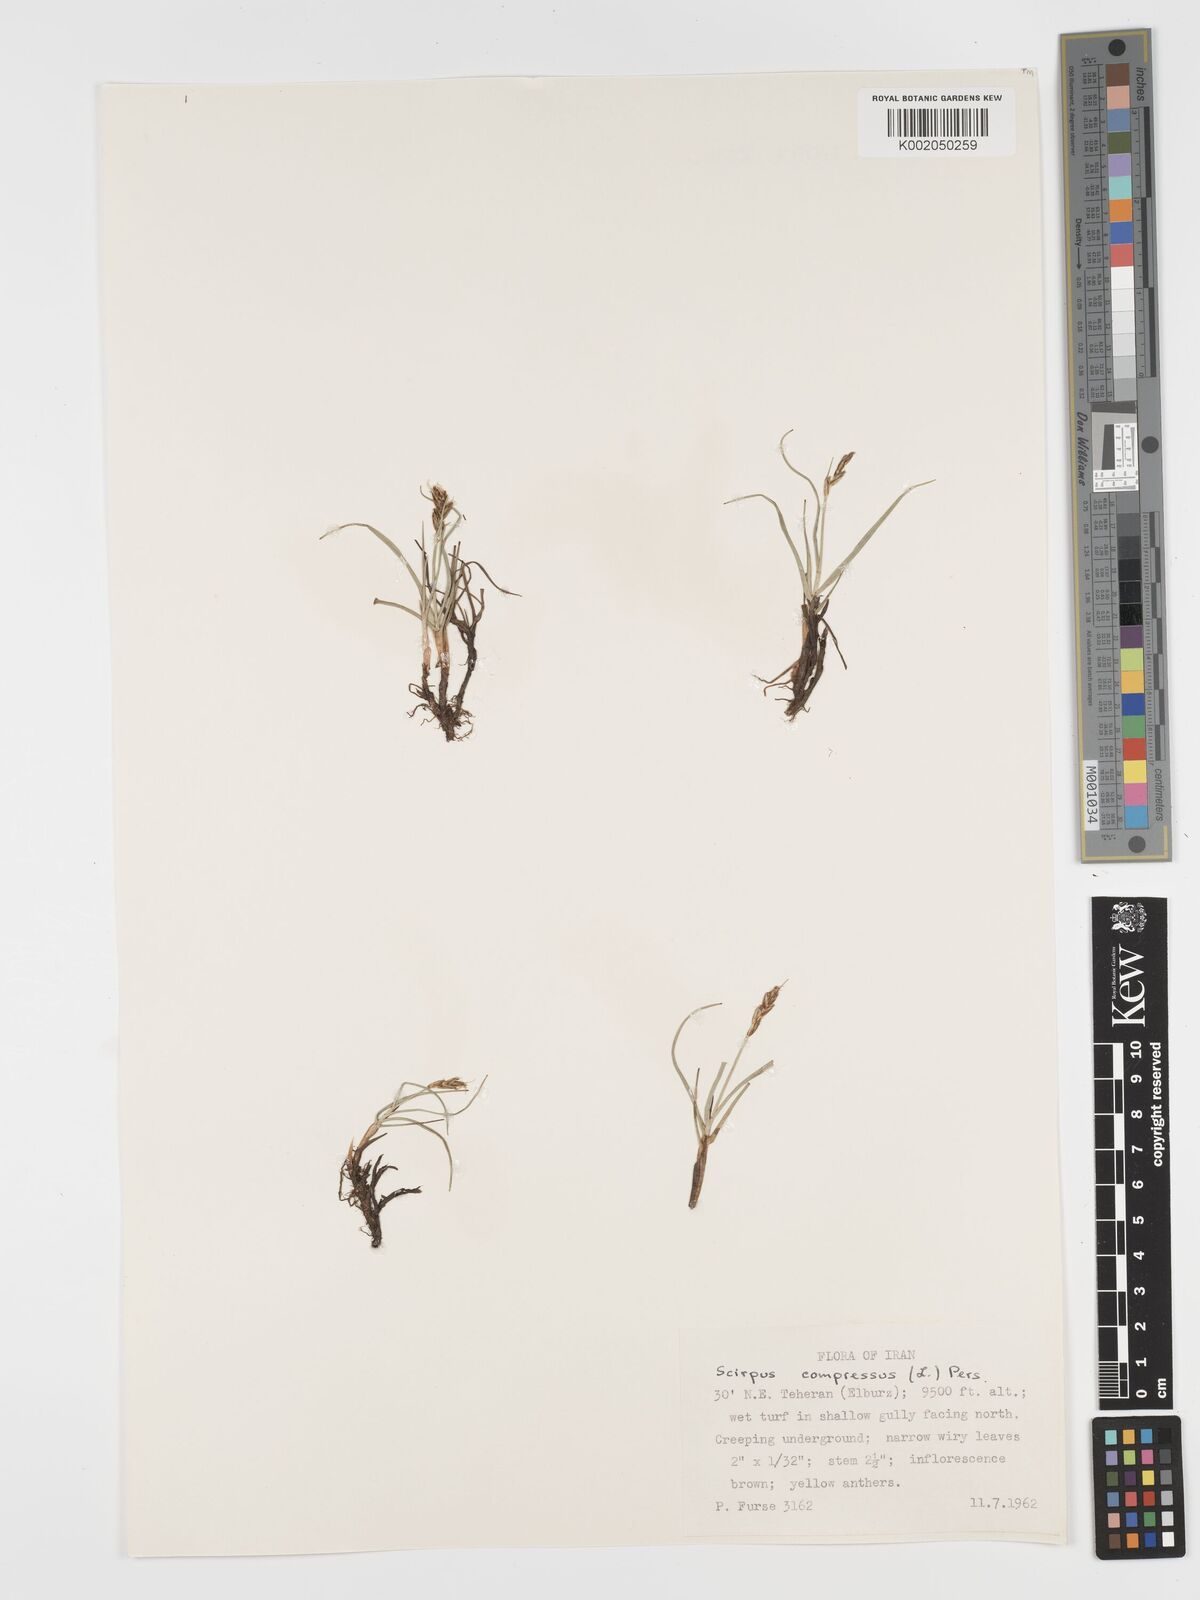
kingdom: Plantae
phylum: Tracheophyta
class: Liliopsida
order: Poales
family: Cyperaceae
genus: Blysmus
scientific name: Blysmus compressus
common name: Flat-sedge
